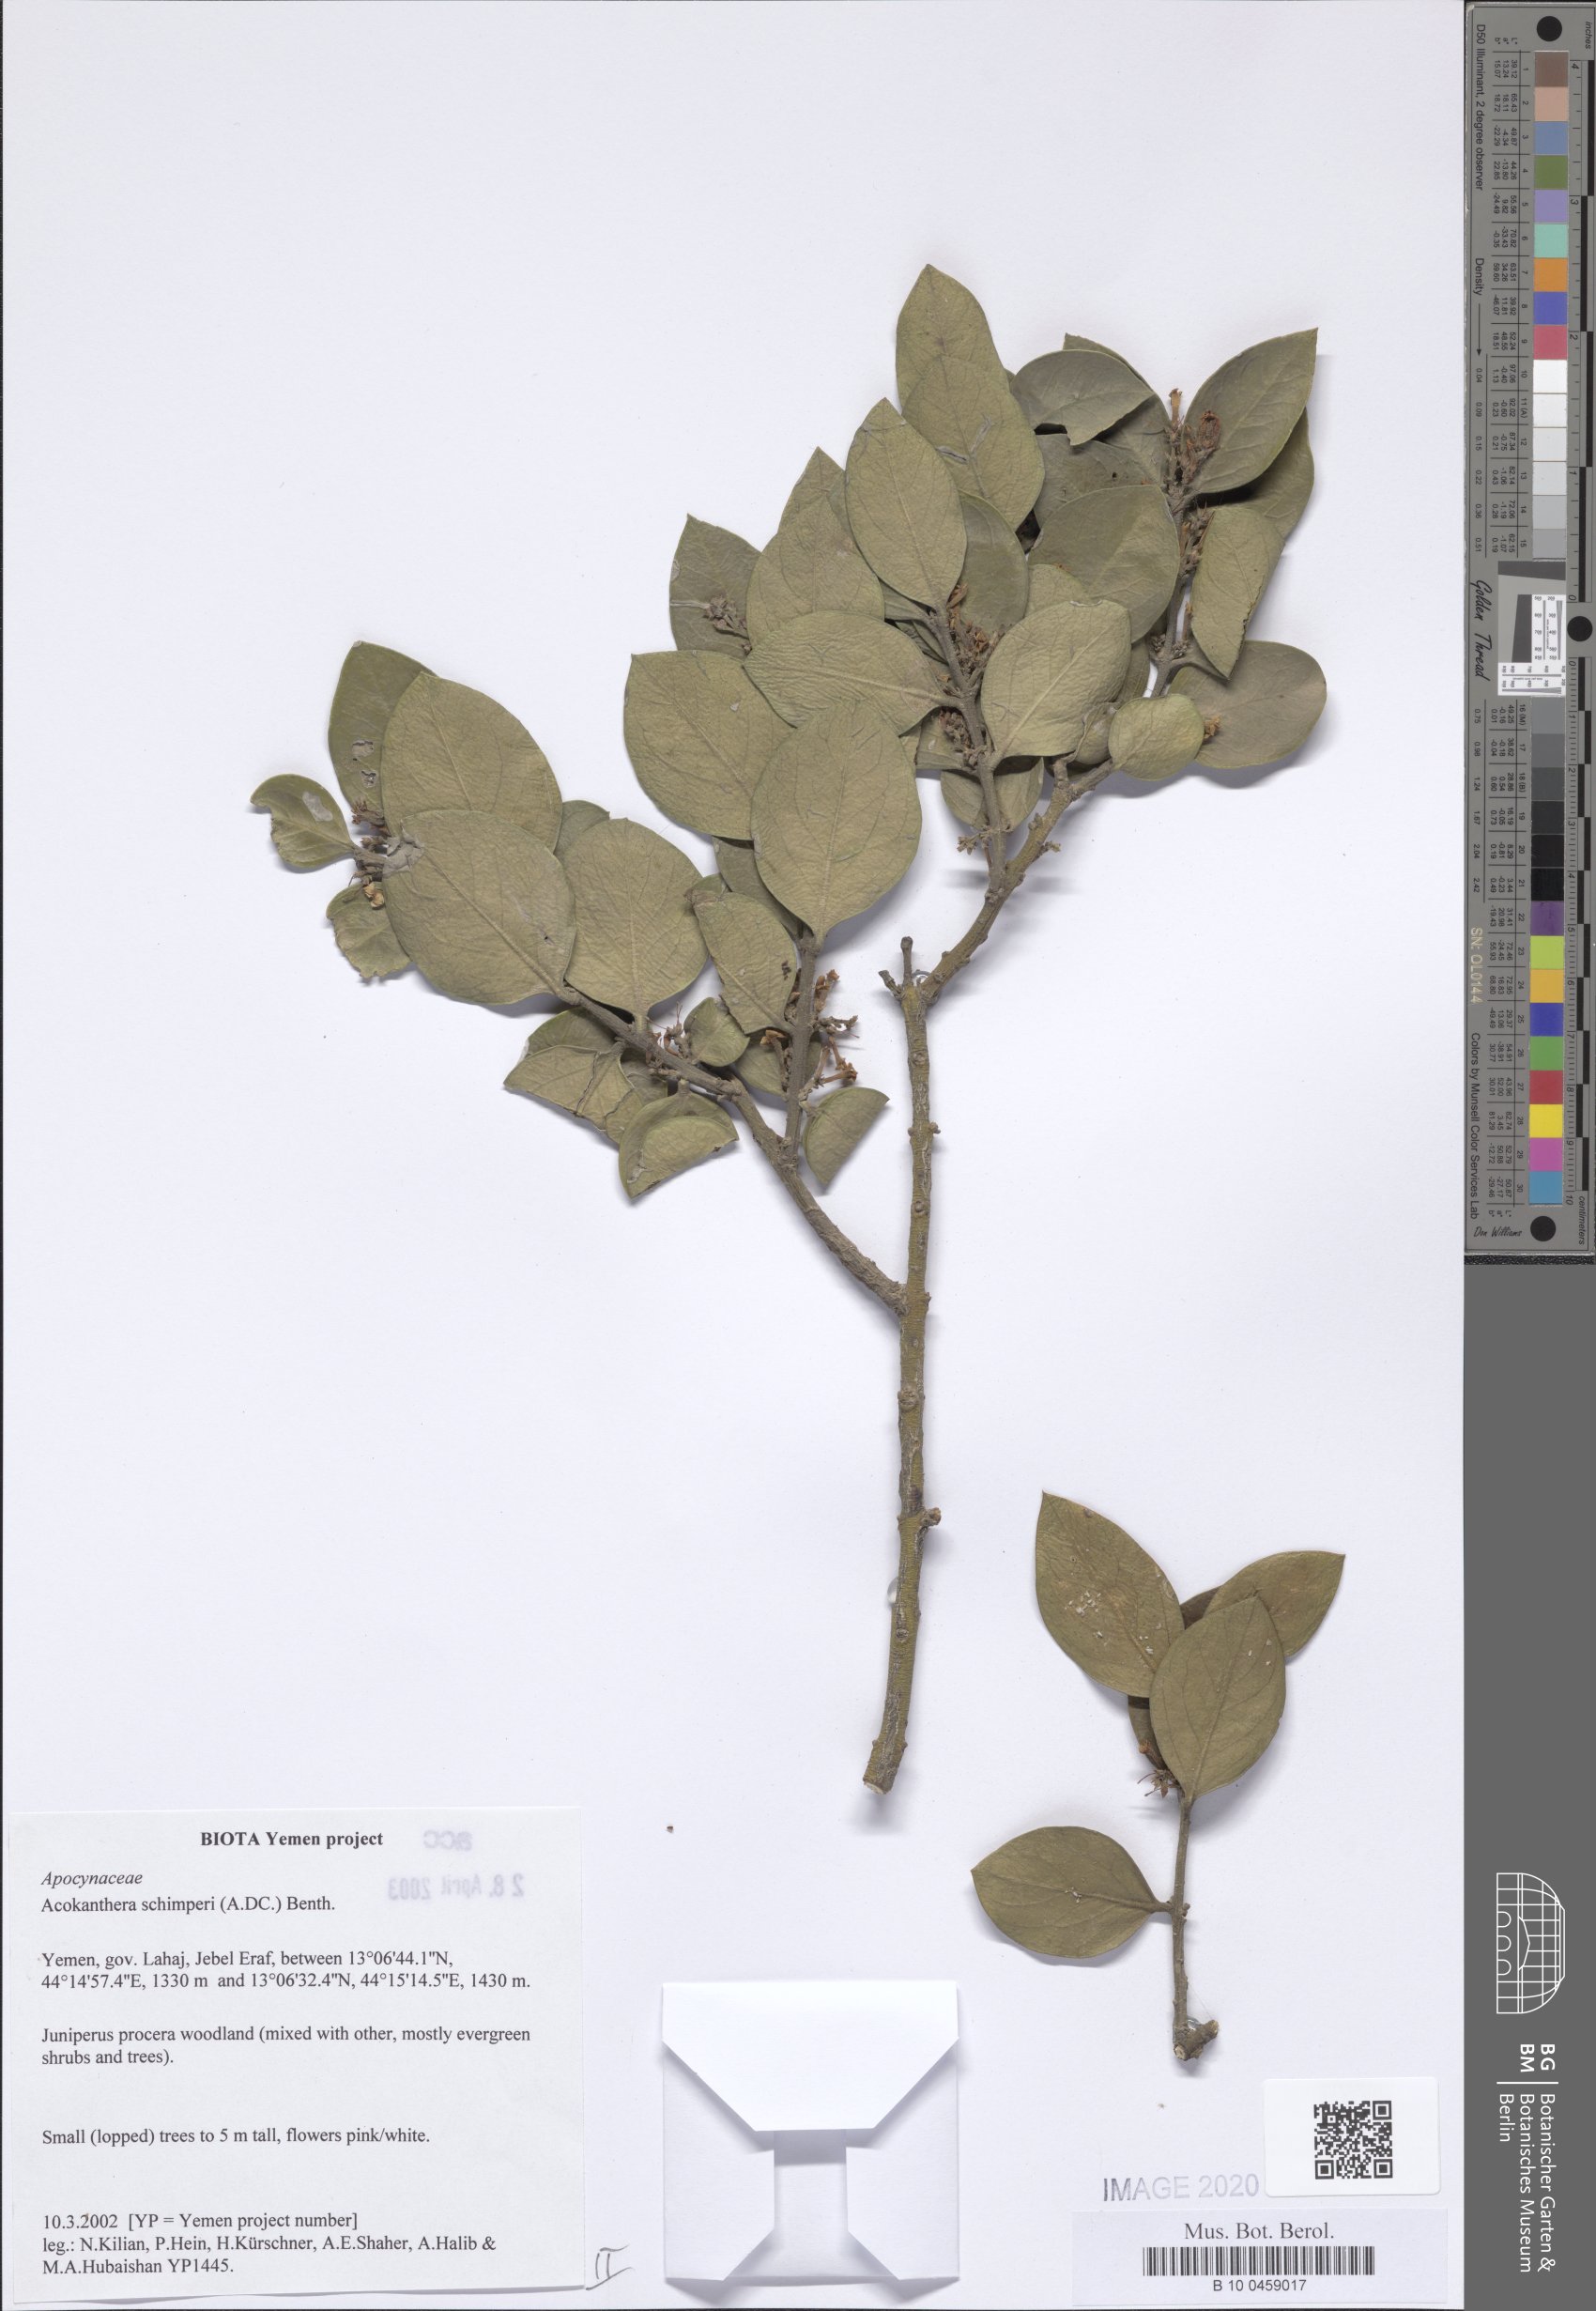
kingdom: Plantae
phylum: Tracheophyta
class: Magnoliopsida
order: Gentianales
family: Apocynaceae
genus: Acokanthera
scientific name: Acokanthera schimperi
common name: Arrow-poison-tree
